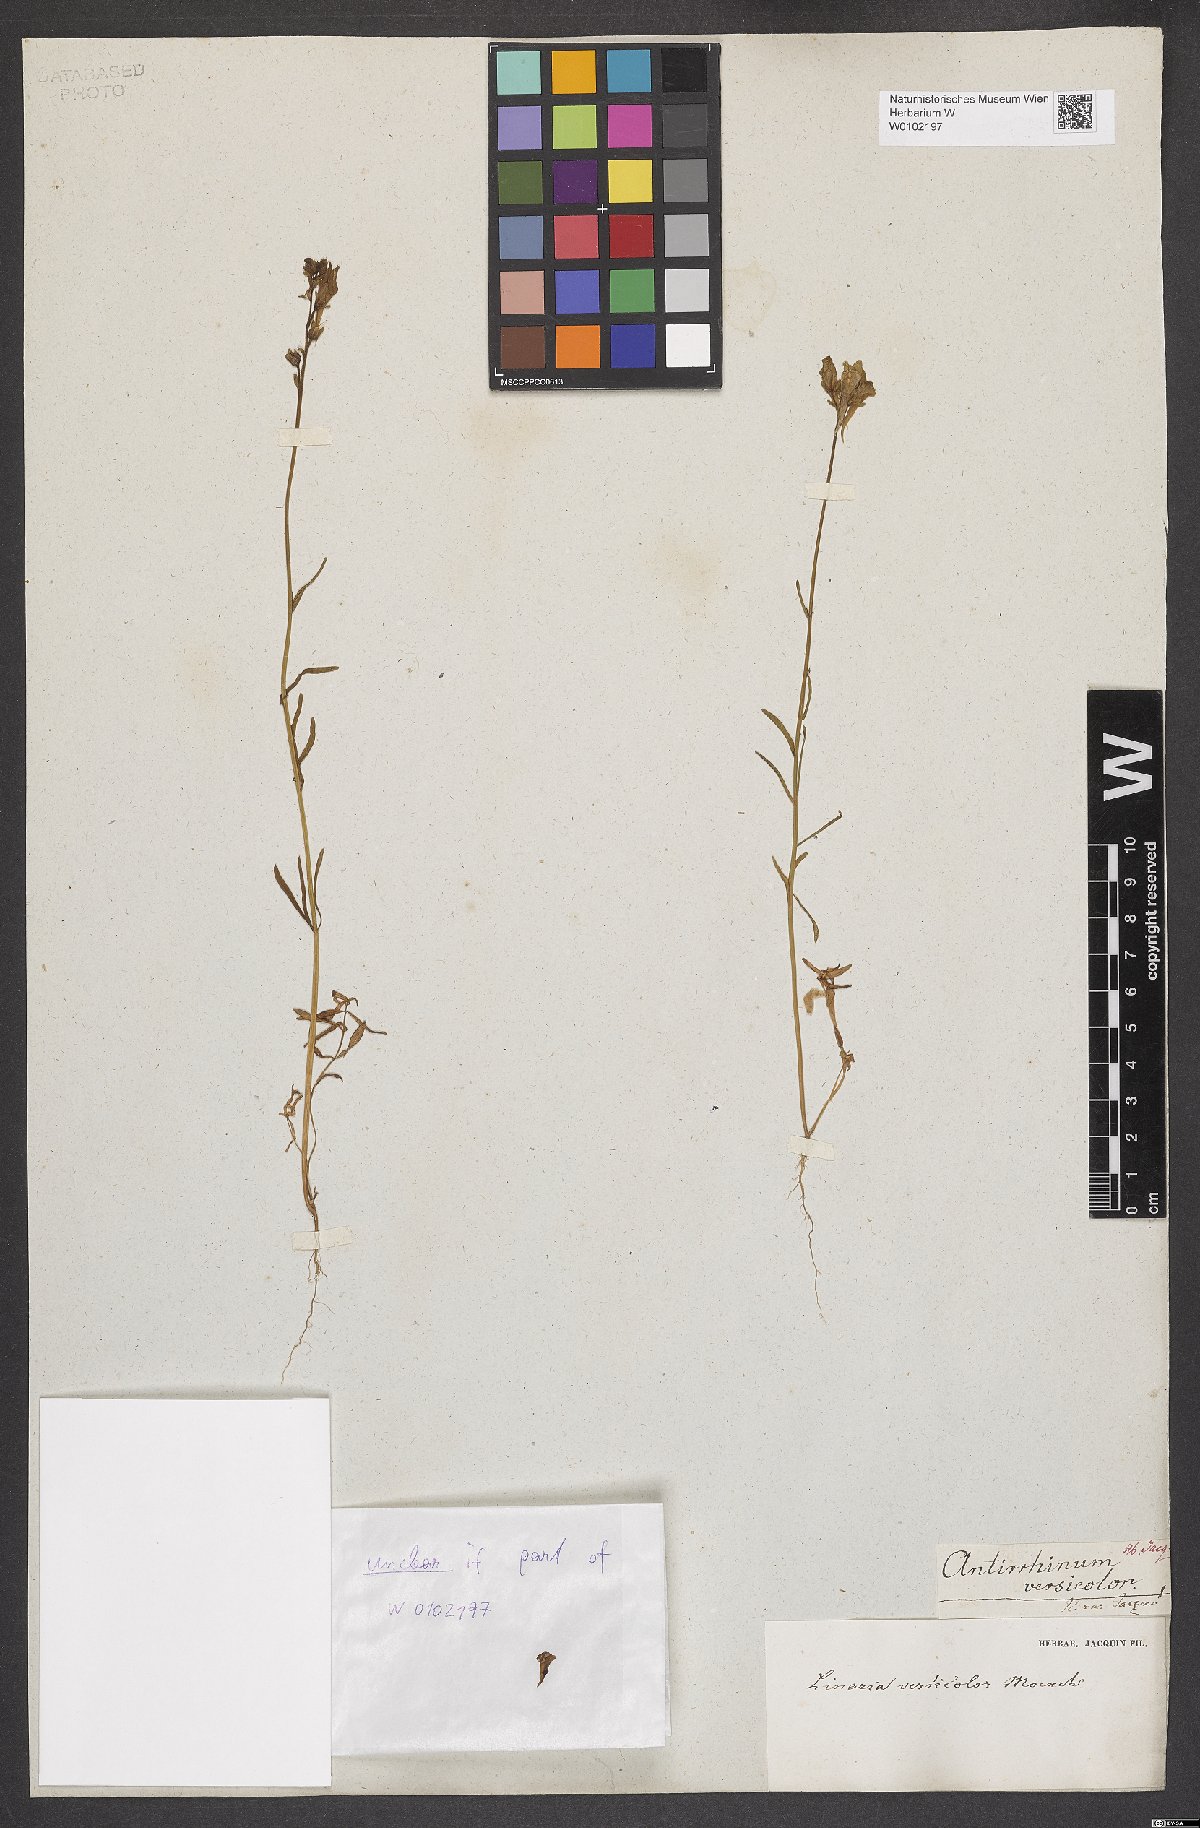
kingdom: Plantae
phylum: Tracheophyta
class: Magnoliopsida
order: Lamiales
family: Plantaginaceae
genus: Linaria
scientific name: Linaria vulgaris
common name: Butter and eggs
